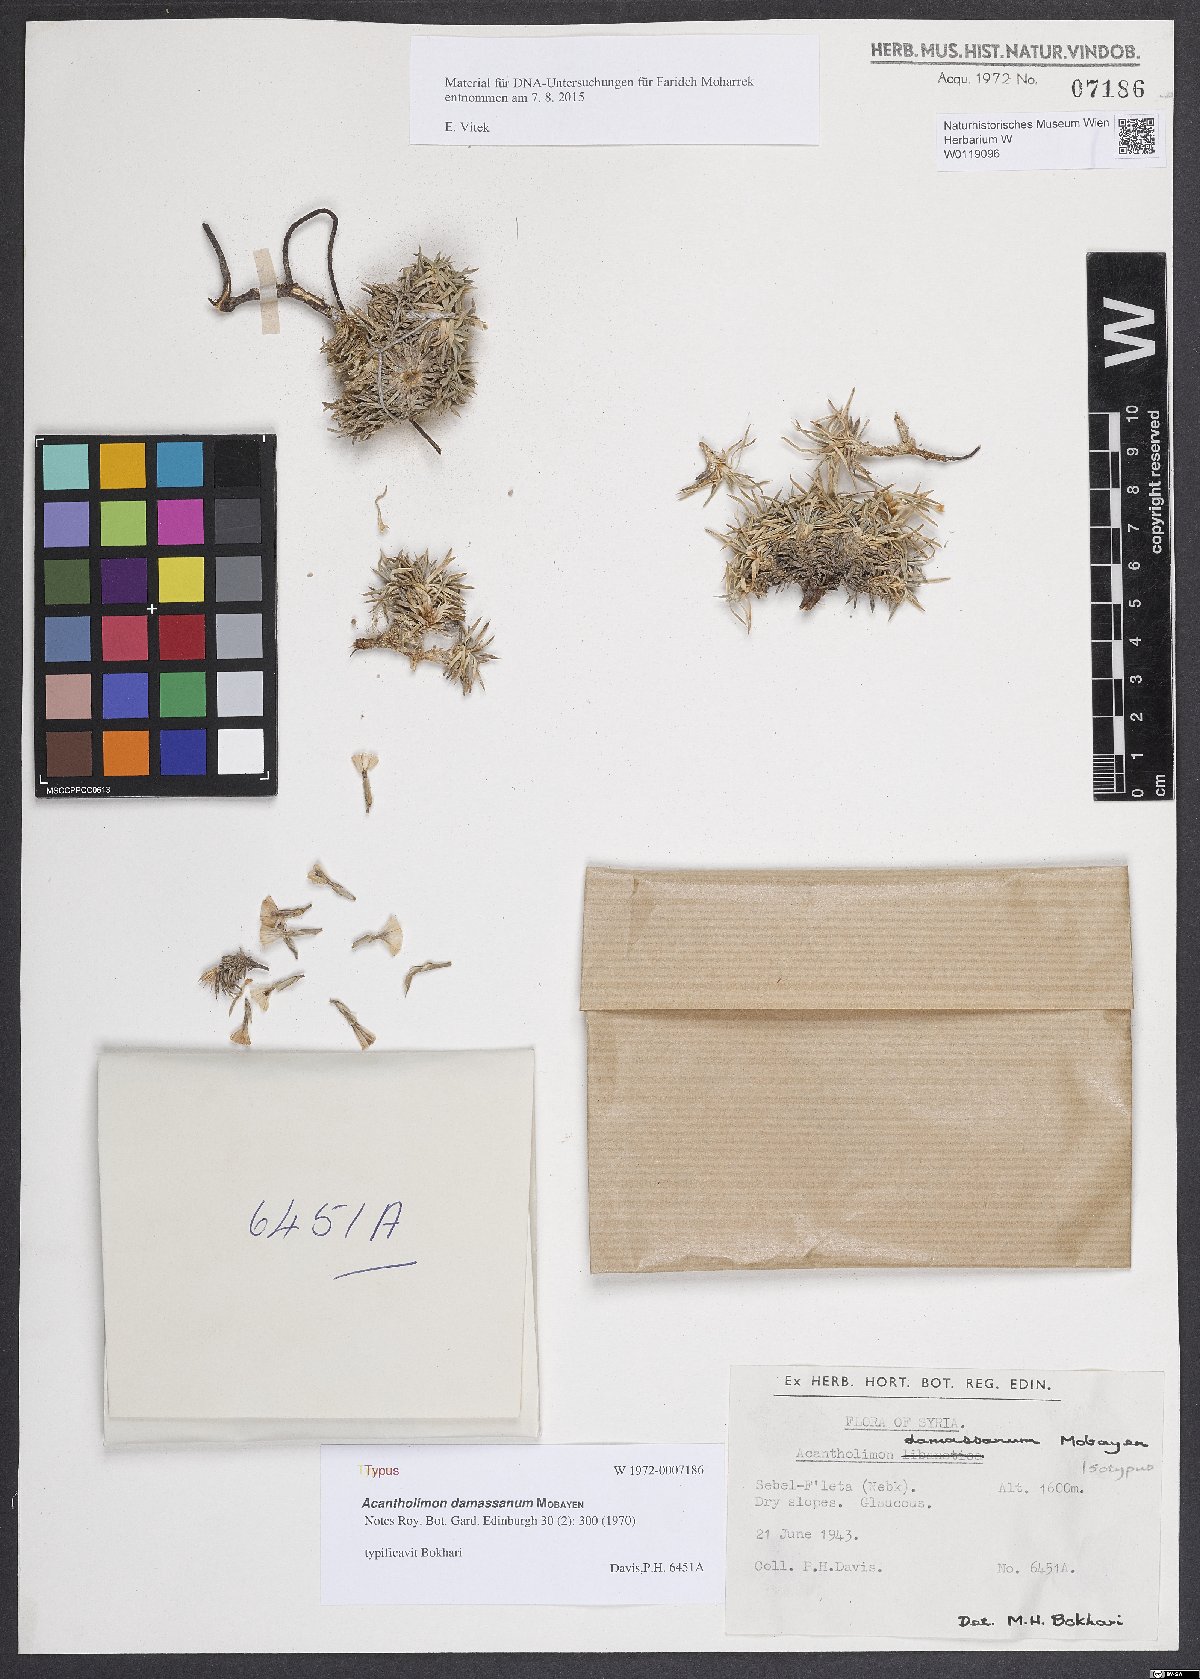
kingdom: Plantae
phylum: Tracheophyta
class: Magnoliopsida
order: Caryophyllales
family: Plumbaginaceae
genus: Acantholimon
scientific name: Acantholimon damassanum
